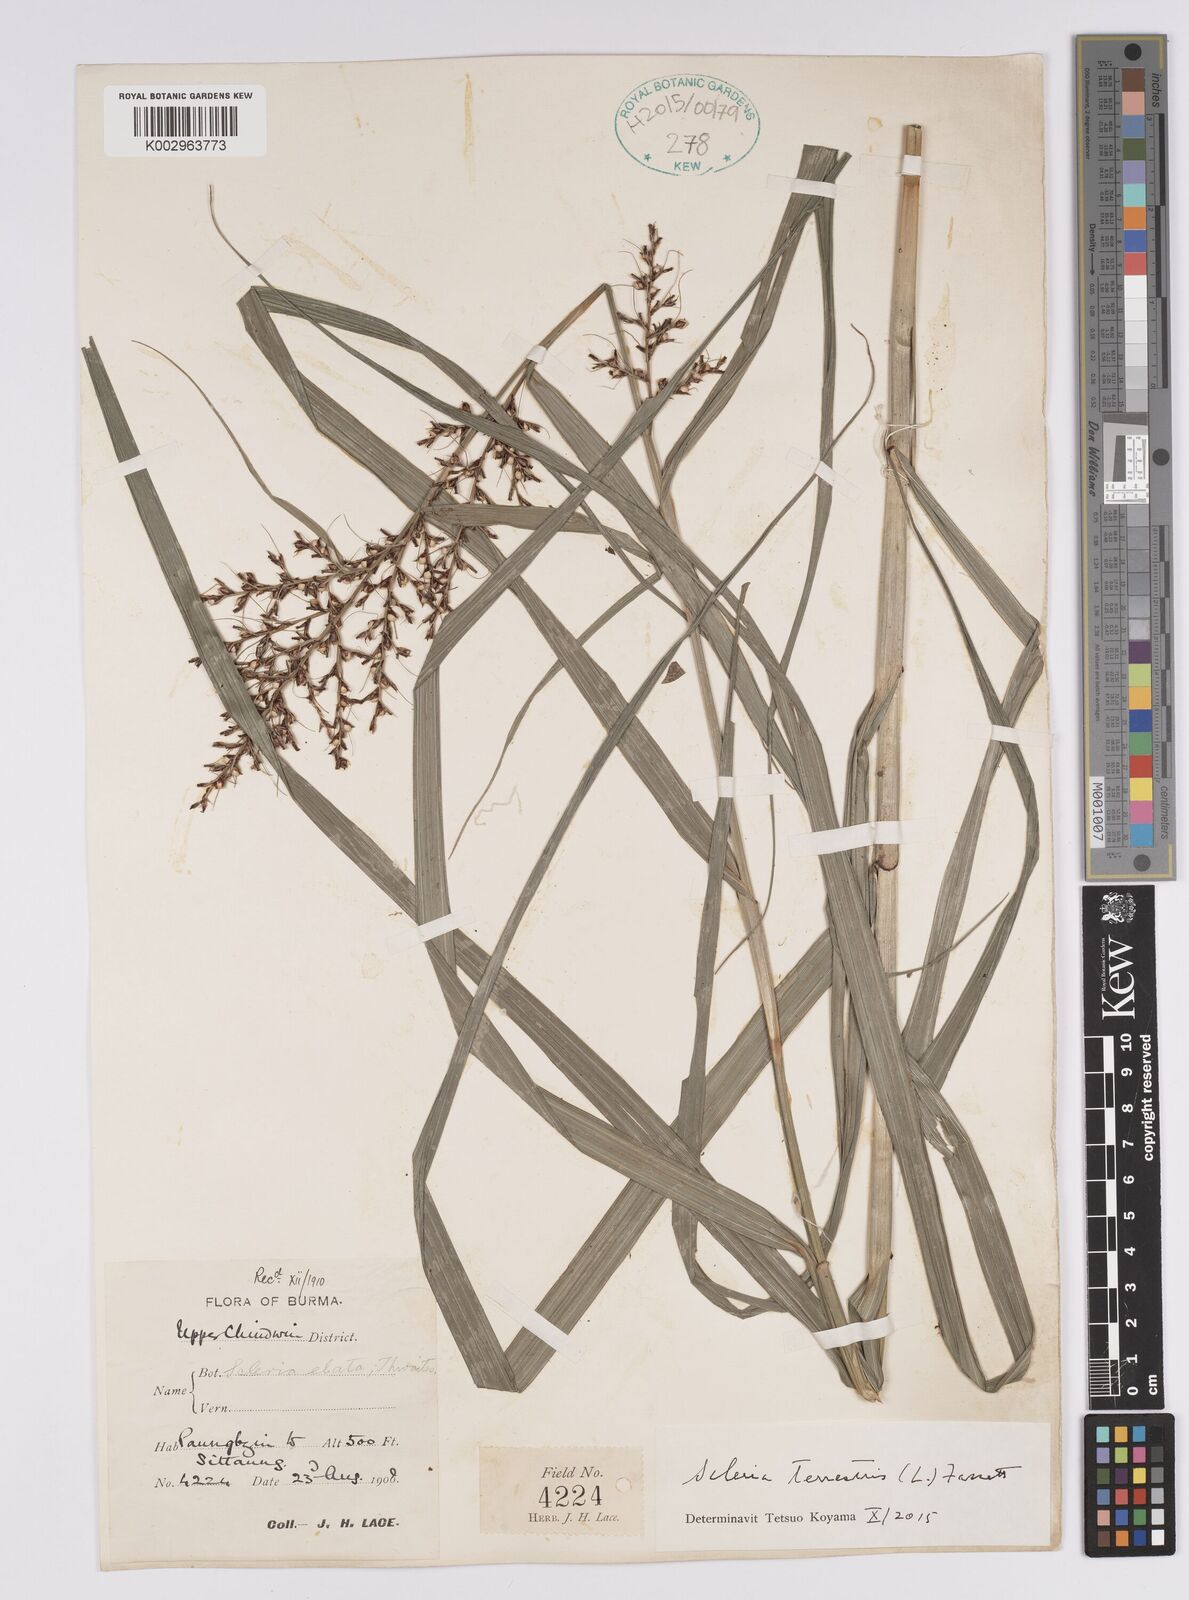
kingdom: Plantae
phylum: Tracheophyta
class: Liliopsida
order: Poales
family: Cyperaceae
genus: Scleria
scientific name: Scleria terrestris
